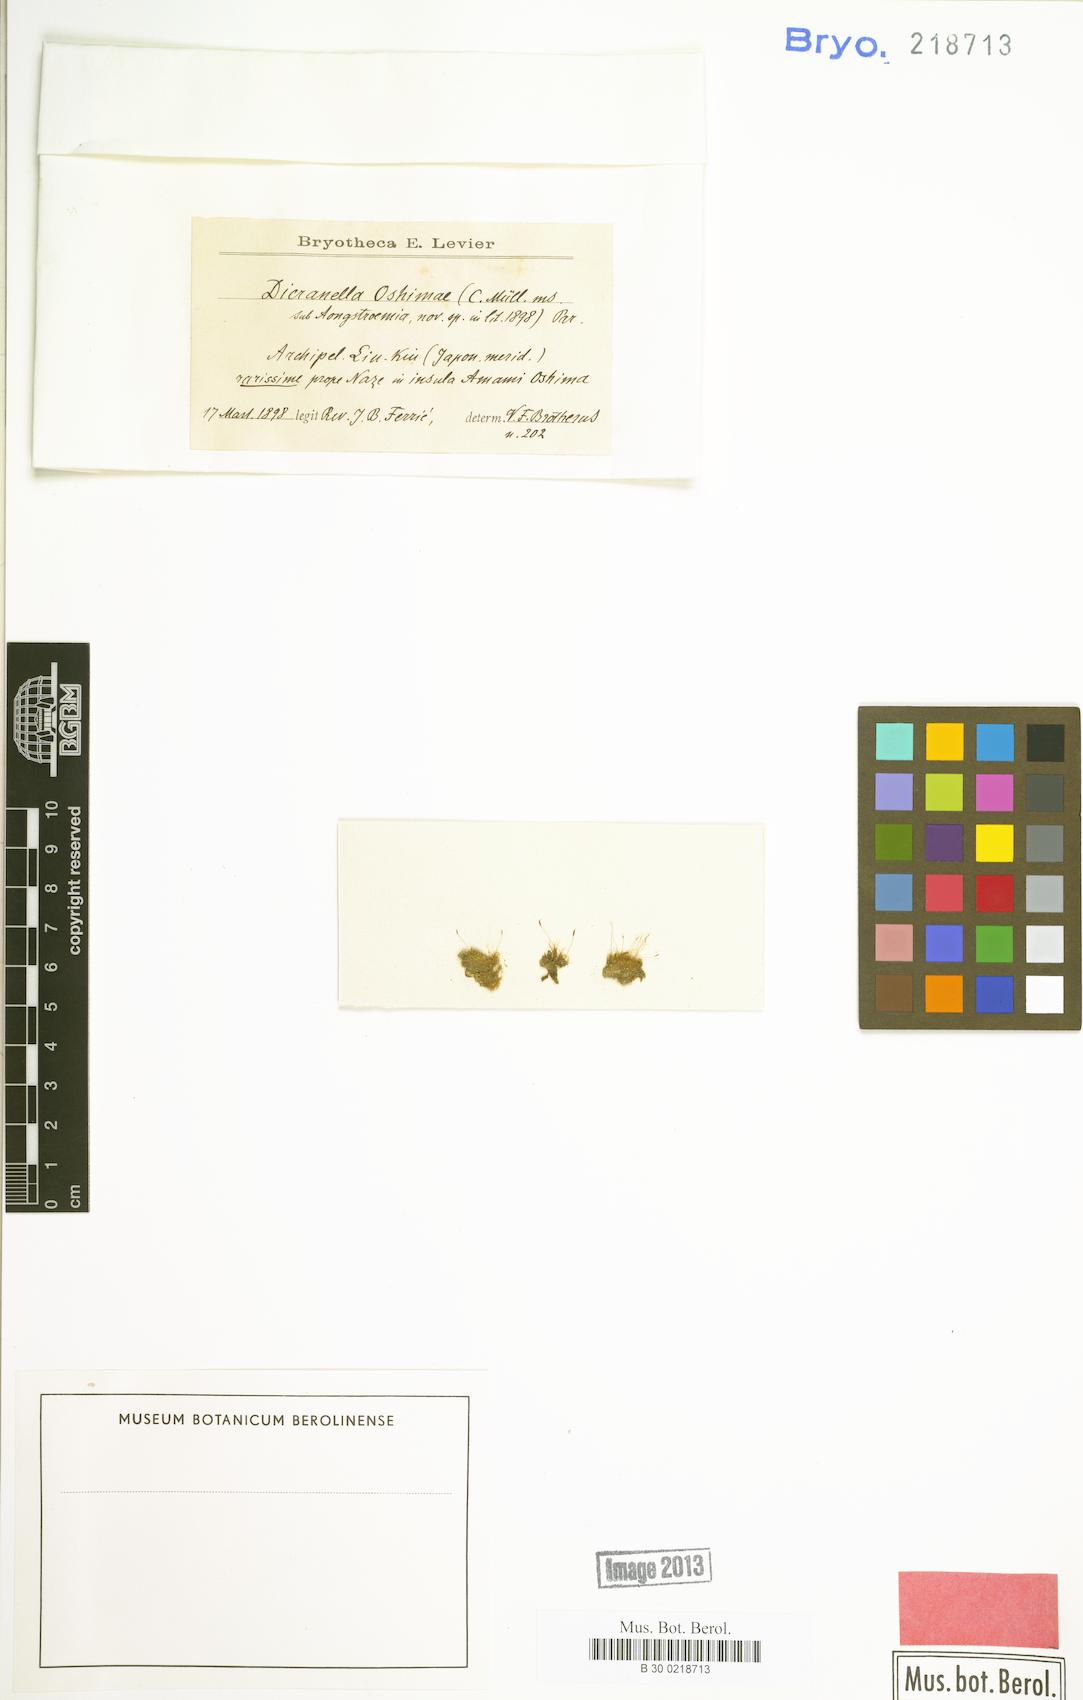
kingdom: Plantae
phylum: Bryophyta
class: Bryopsida
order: Dicranales
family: Dicranellaceae
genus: Dicranella
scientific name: Dicranella oshimae
